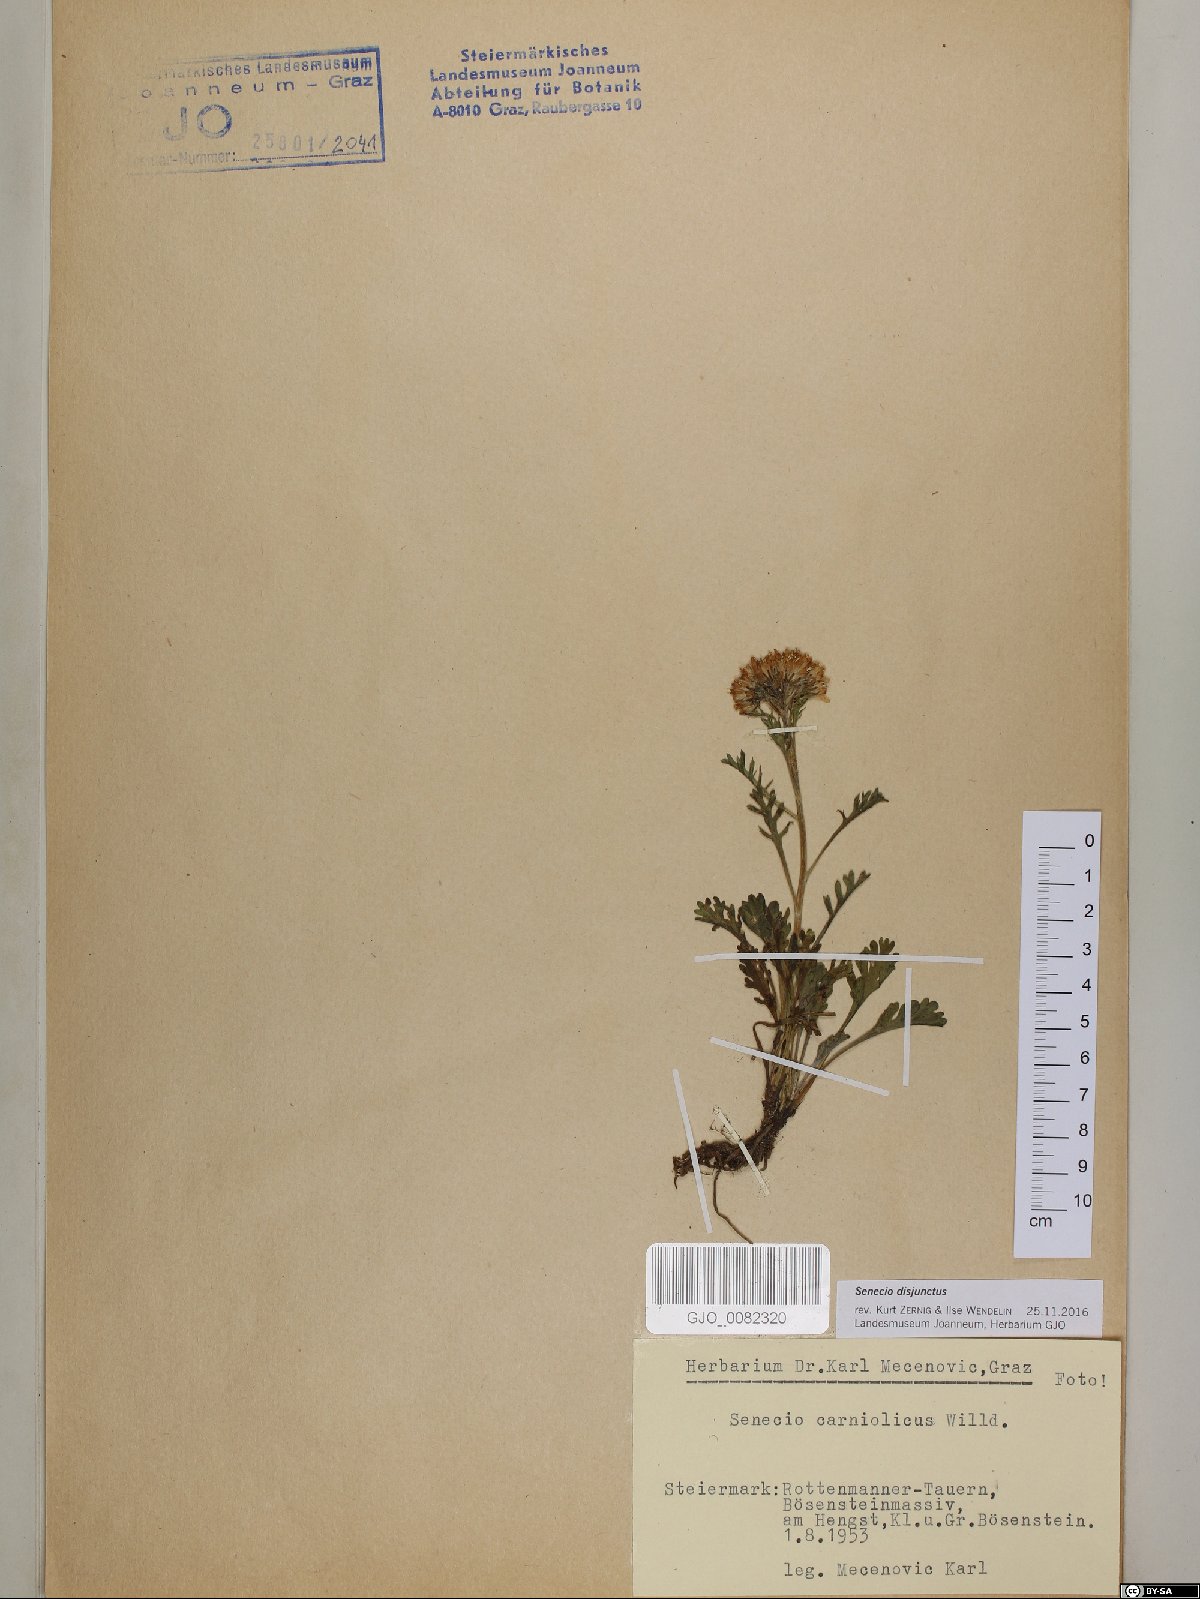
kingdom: Plantae
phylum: Tracheophyta
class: Magnoliopsida
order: Asterales
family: Asteraceae
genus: Jacobaea
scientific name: Jacobaea disjuncta
